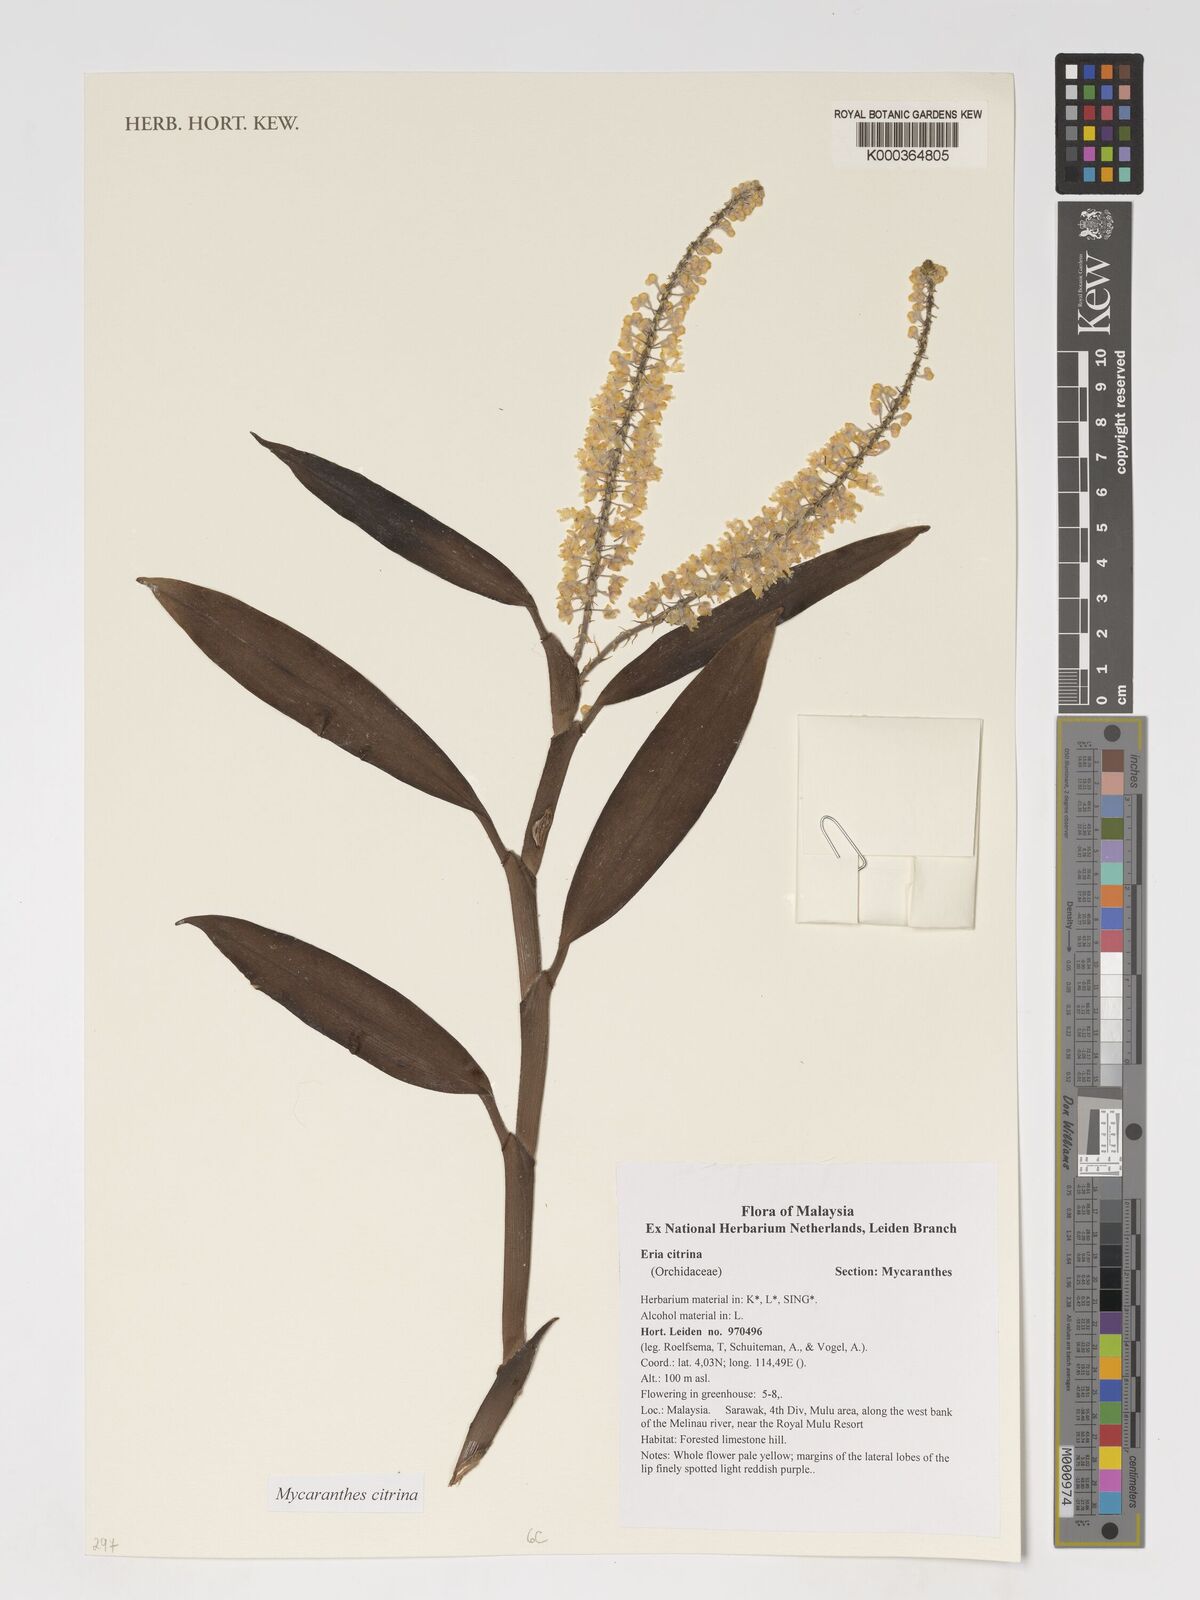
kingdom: Plantae
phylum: Tracheophyta
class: Liliopsida
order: Asparagales
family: Orchidaceae
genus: Mycaranthes
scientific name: Mycaranthes citrina
